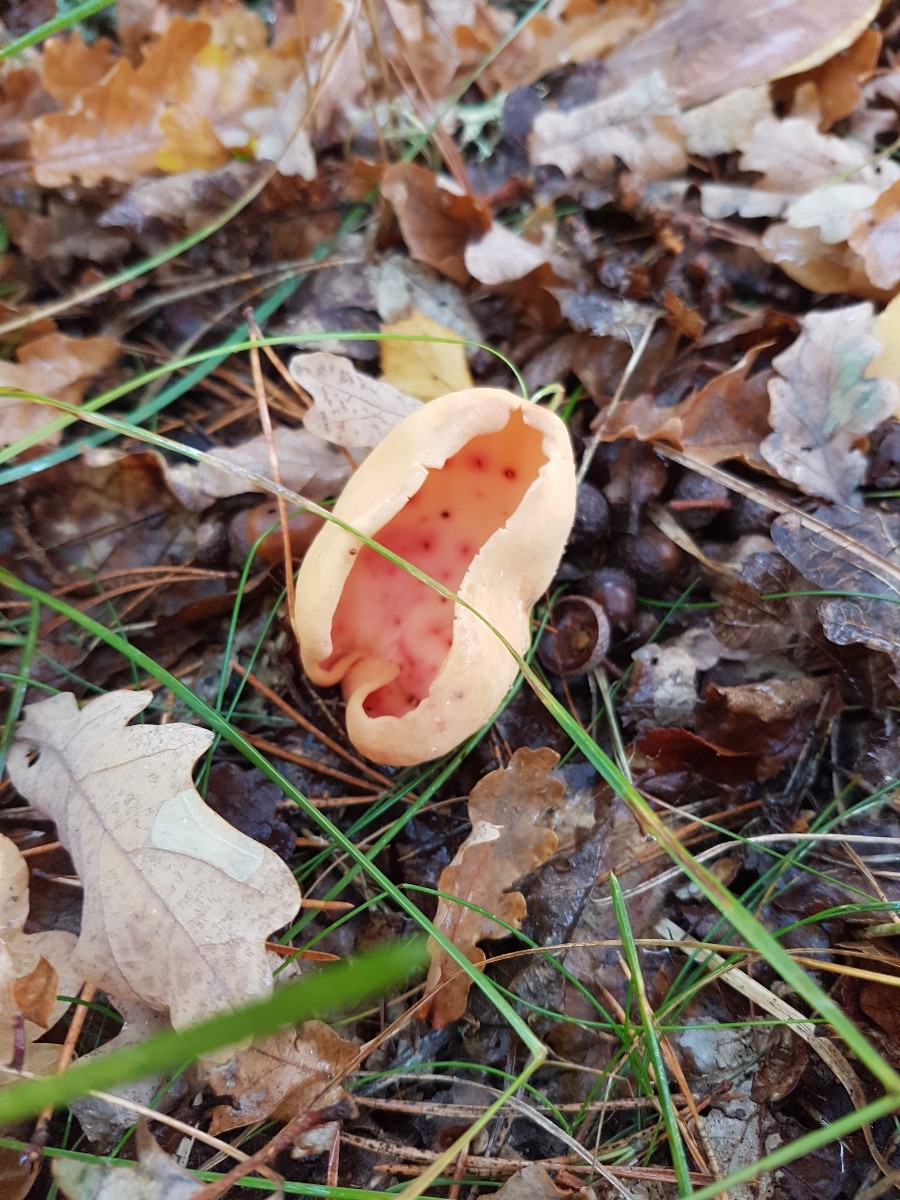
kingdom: Fungi
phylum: Ascomycota
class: Pezizomycetes
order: Pezizales
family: Otideaceae
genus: Otidea
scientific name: Otidea onotica
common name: æsel-ørebæger
